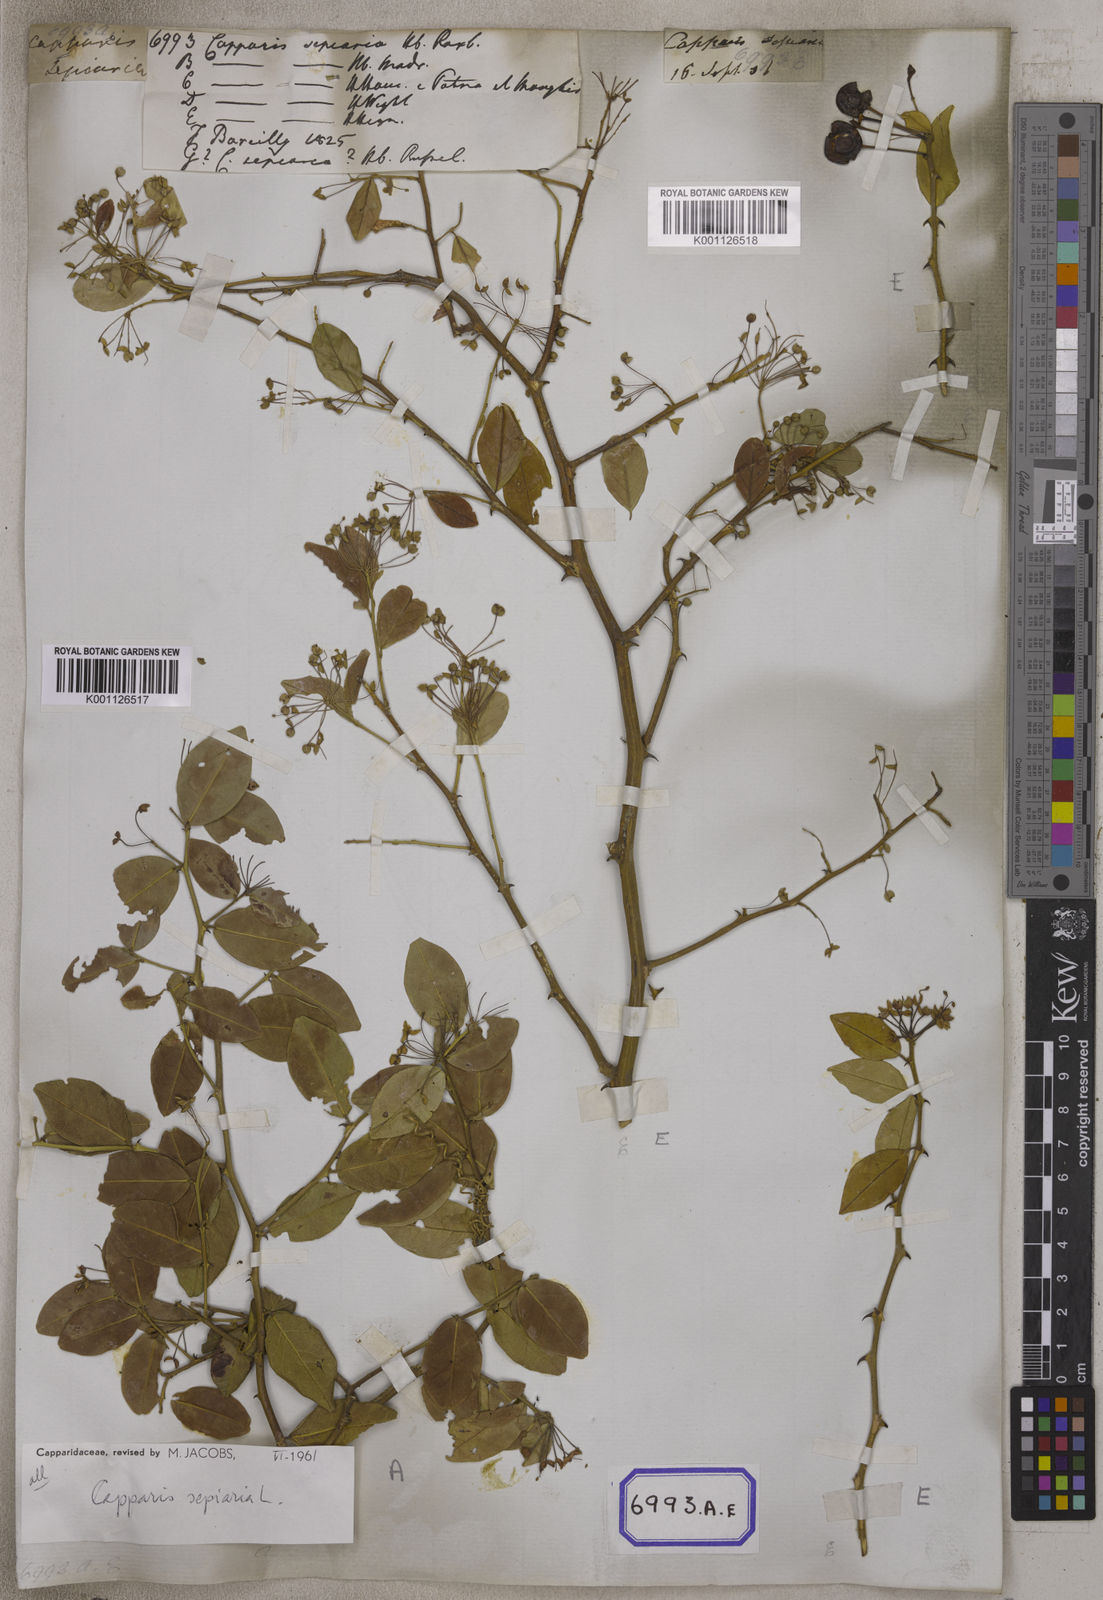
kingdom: Plantae
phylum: Tracheophyta
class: Magnoliopsida
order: Brassicales
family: Capparaceae
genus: Capparis
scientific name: Capparis
